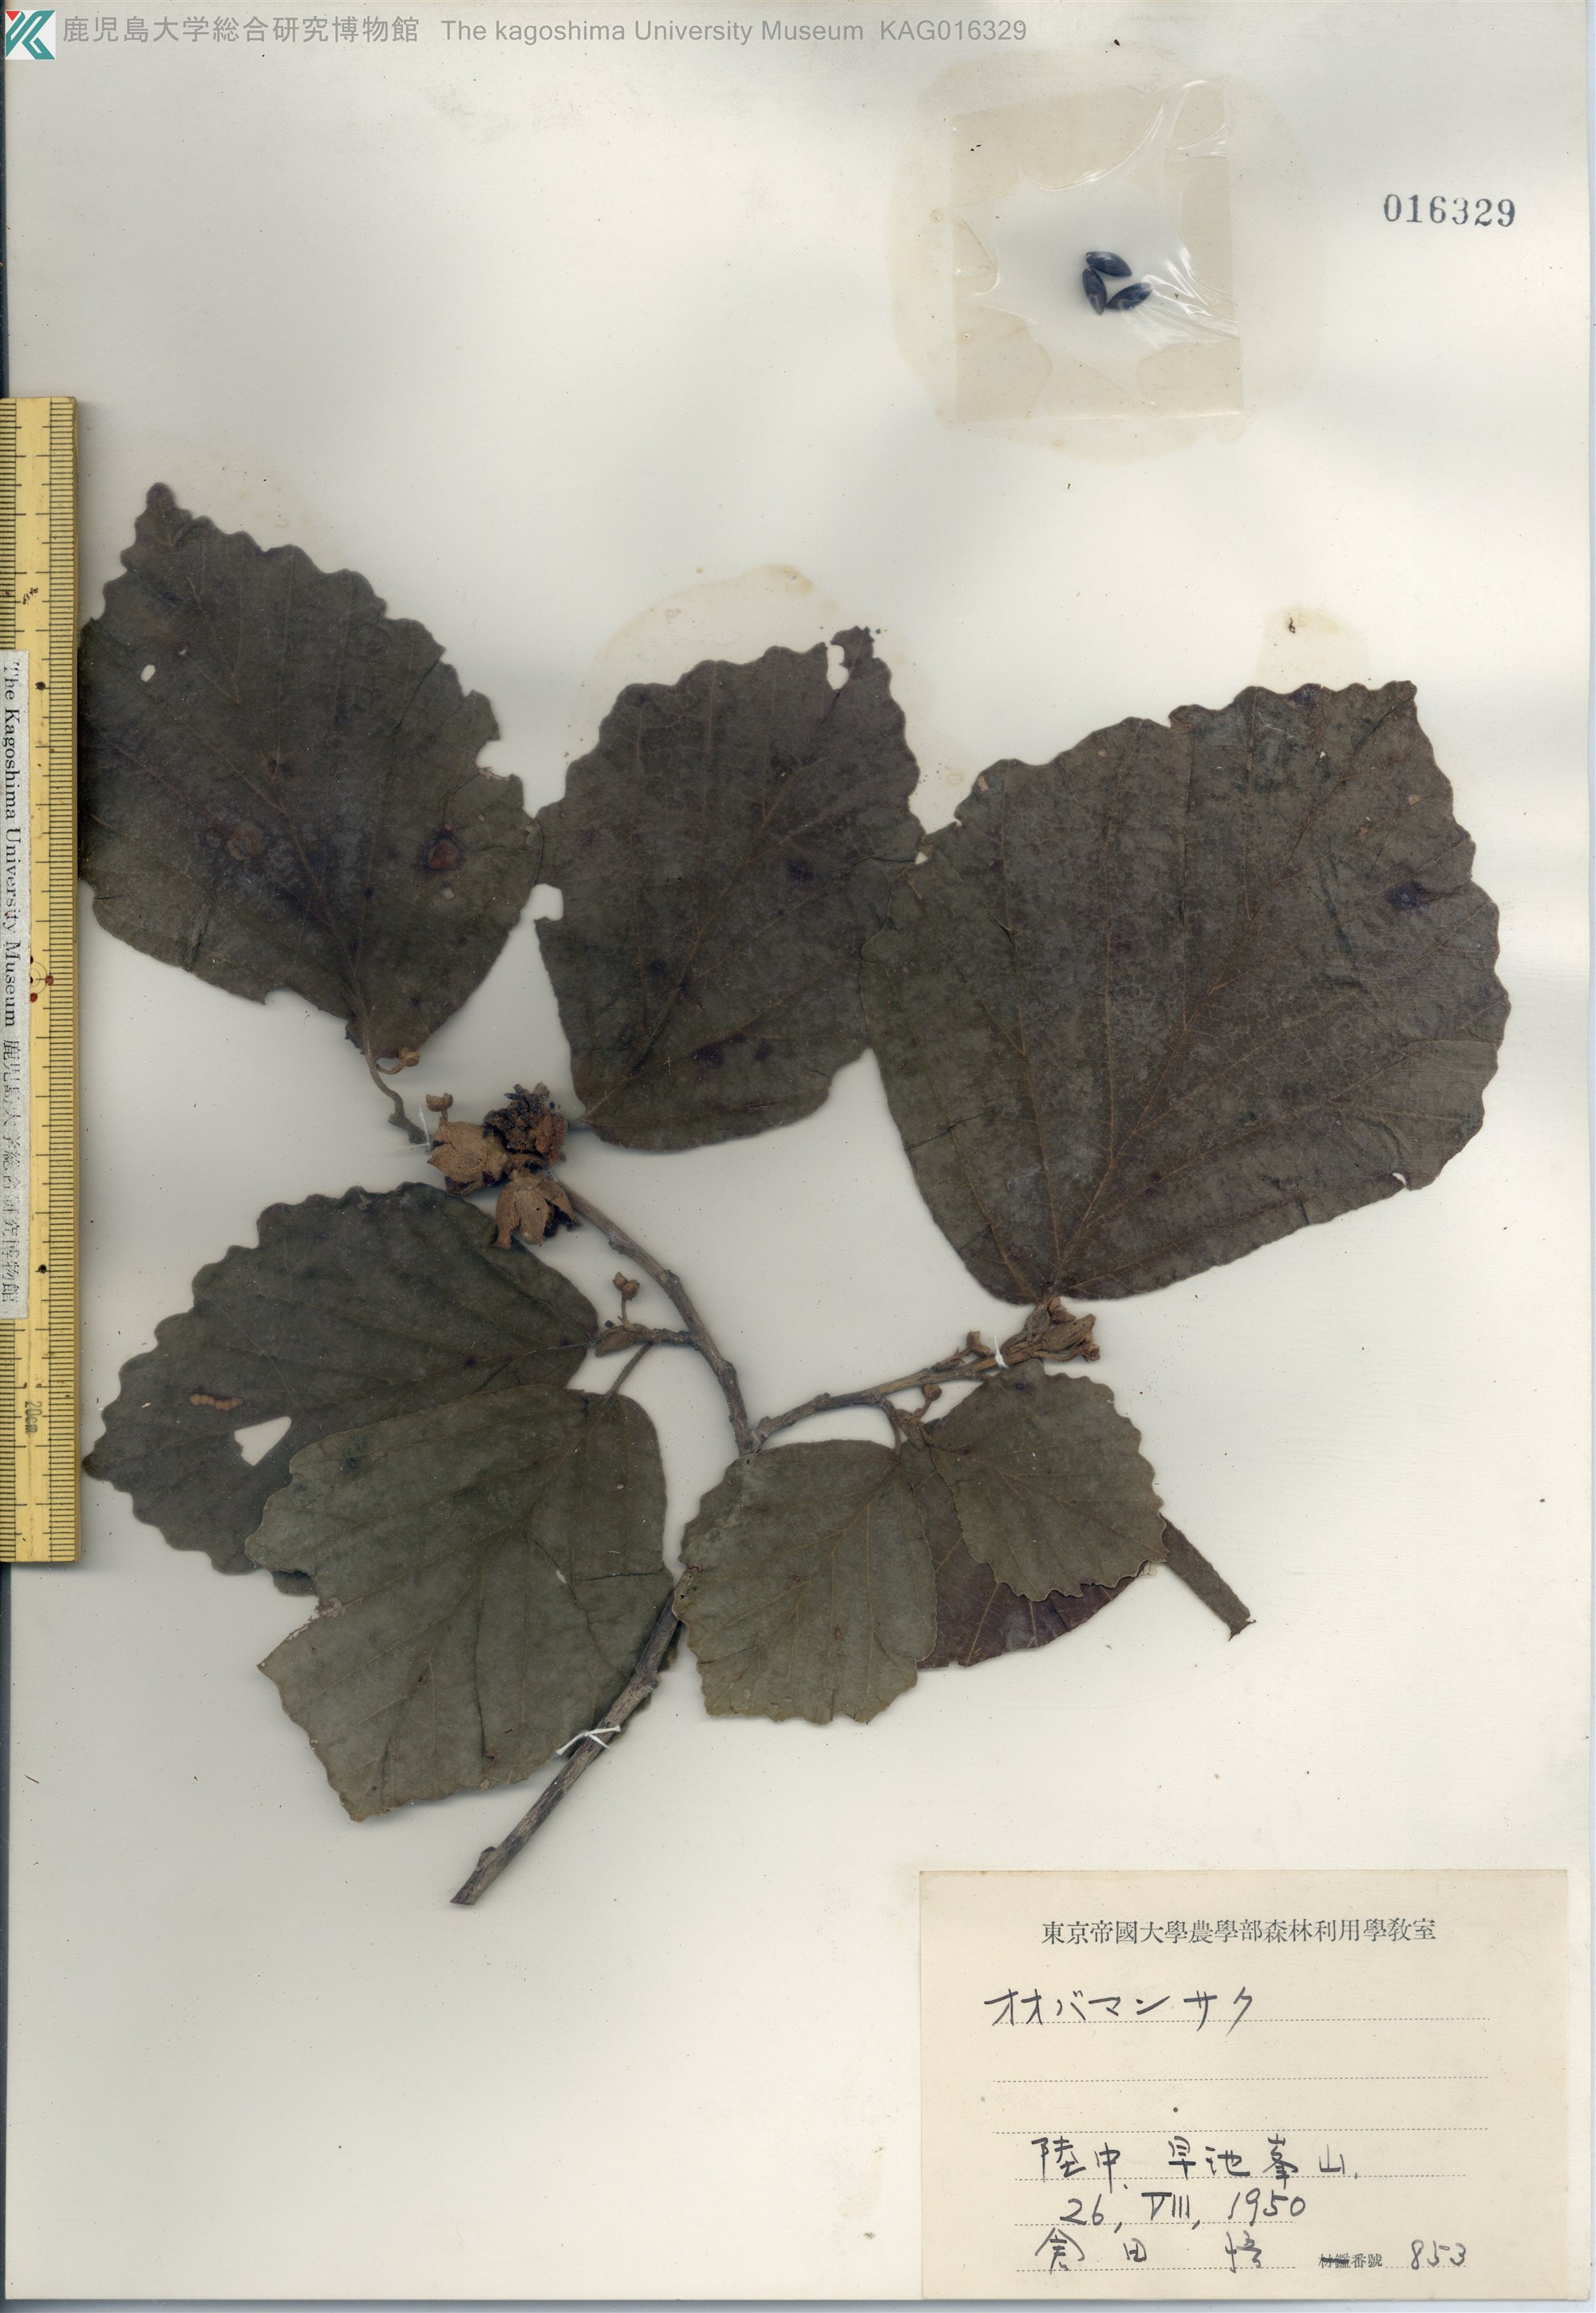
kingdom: Plantae
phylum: Tracheophyta
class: Magnoliopsida
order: Saxifragales
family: Hamamelidaceae
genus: Hamamelis
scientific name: Hamamelis japonica
